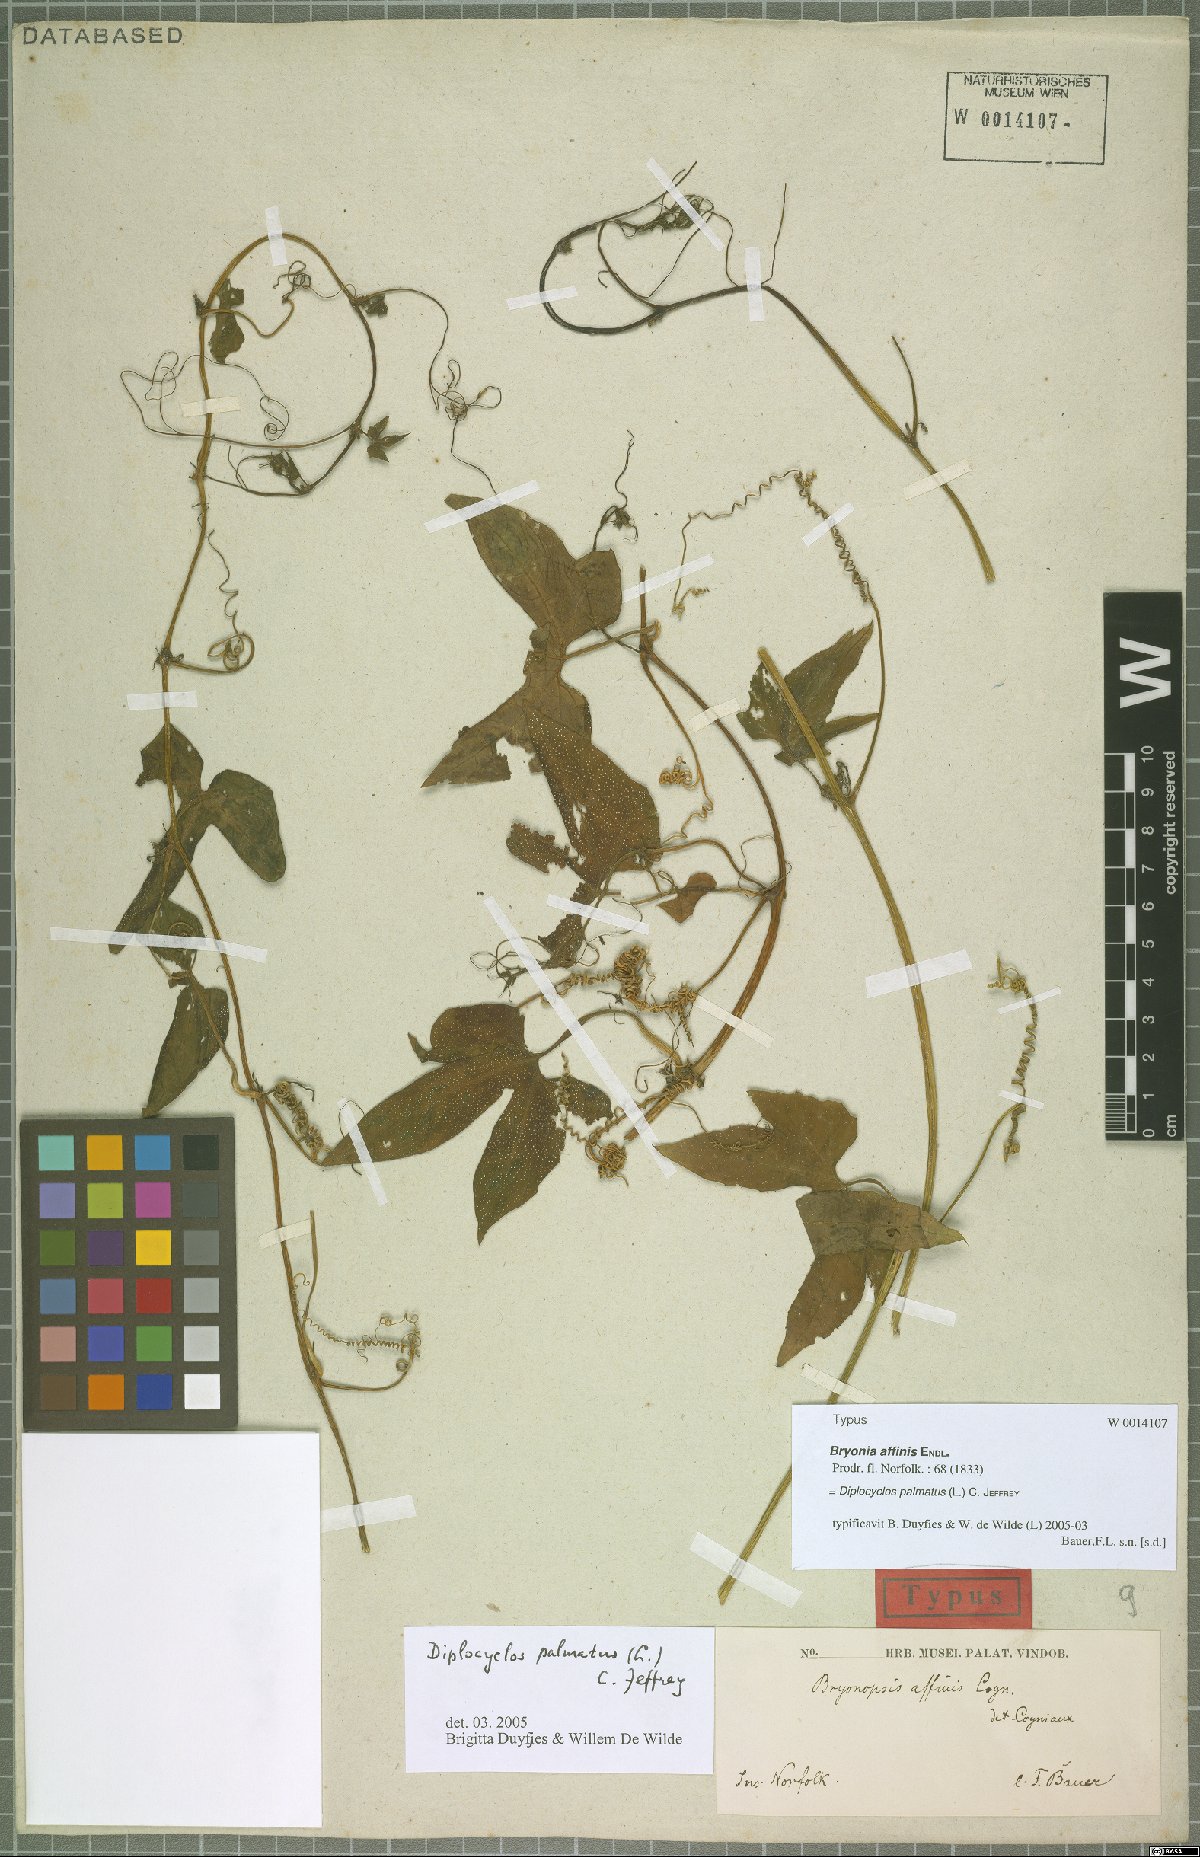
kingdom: Plantae
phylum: Tracheophyta
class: Magnoliopsida
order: Cucurbitales
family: Cucurbitaceae
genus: Diplocyclos
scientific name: Diplocyclos palmatus
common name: Striped-cucumber
